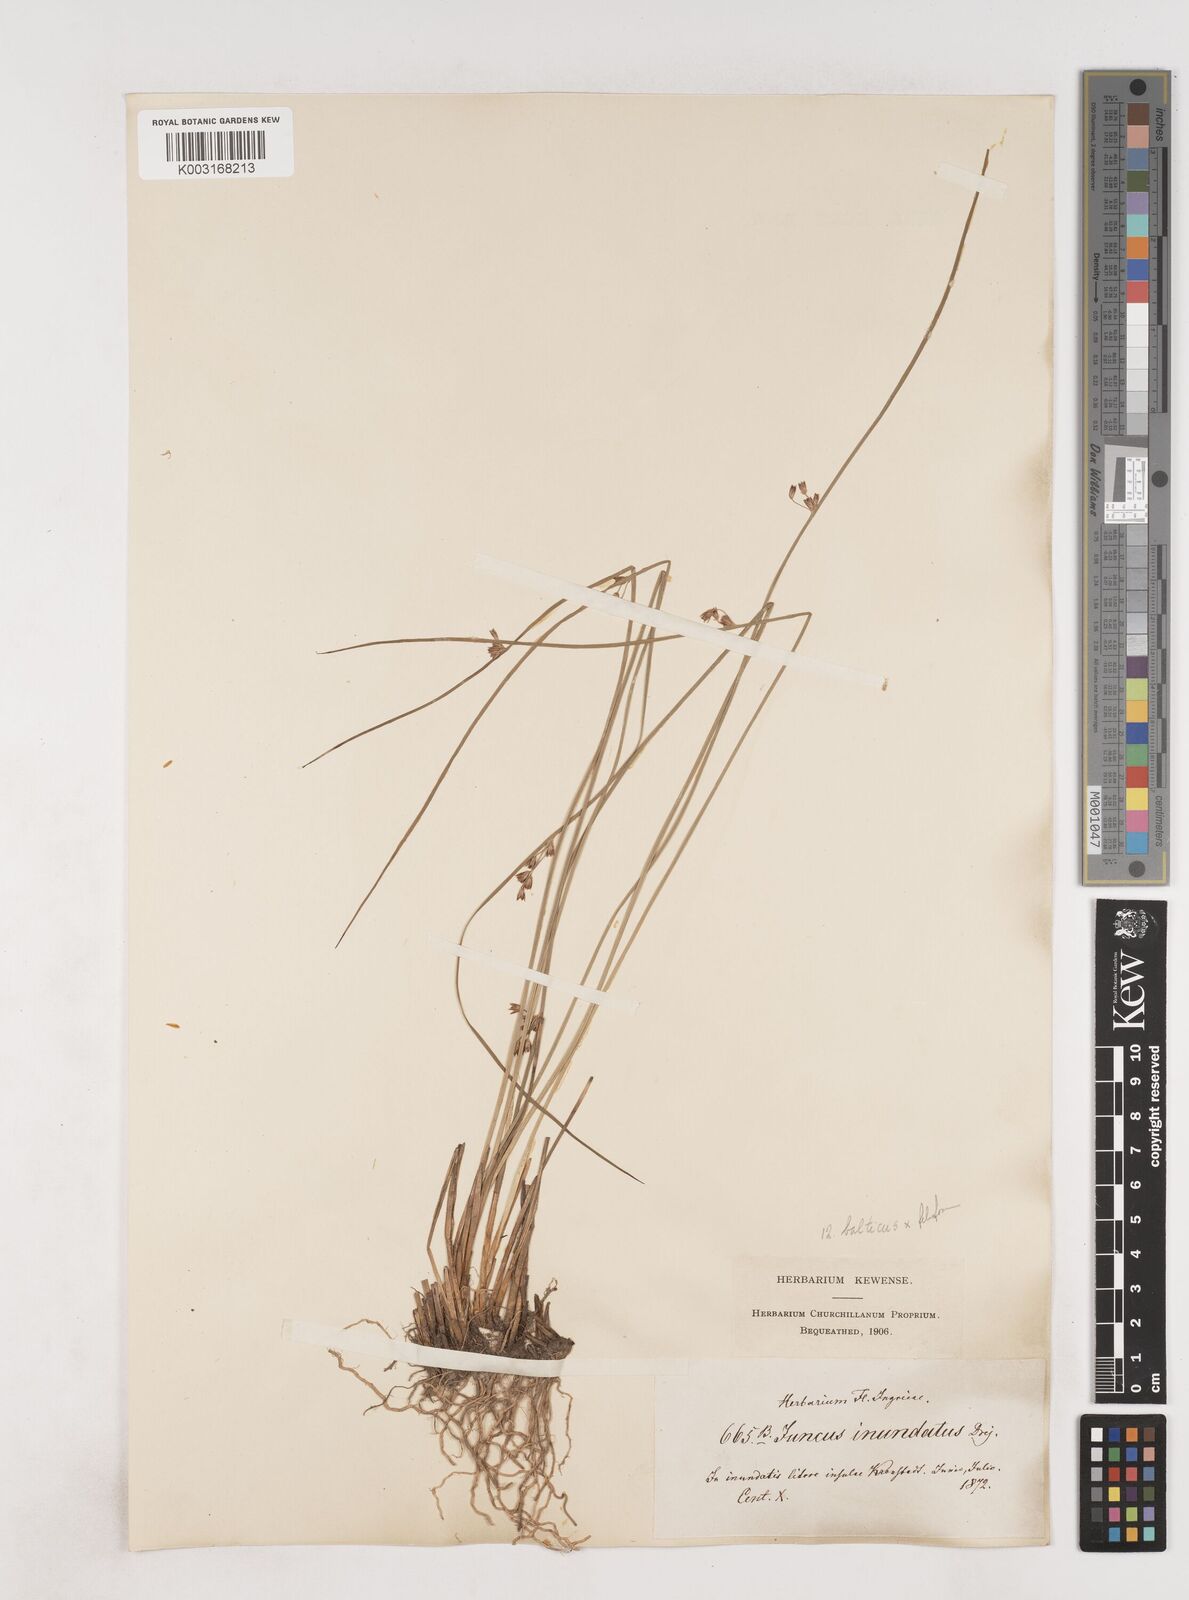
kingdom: Plantae
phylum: Tracheophyta
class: Liliopsida
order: Poales
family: Juncaceae
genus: Juncus
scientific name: Juncus balticus
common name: Baltic rush
